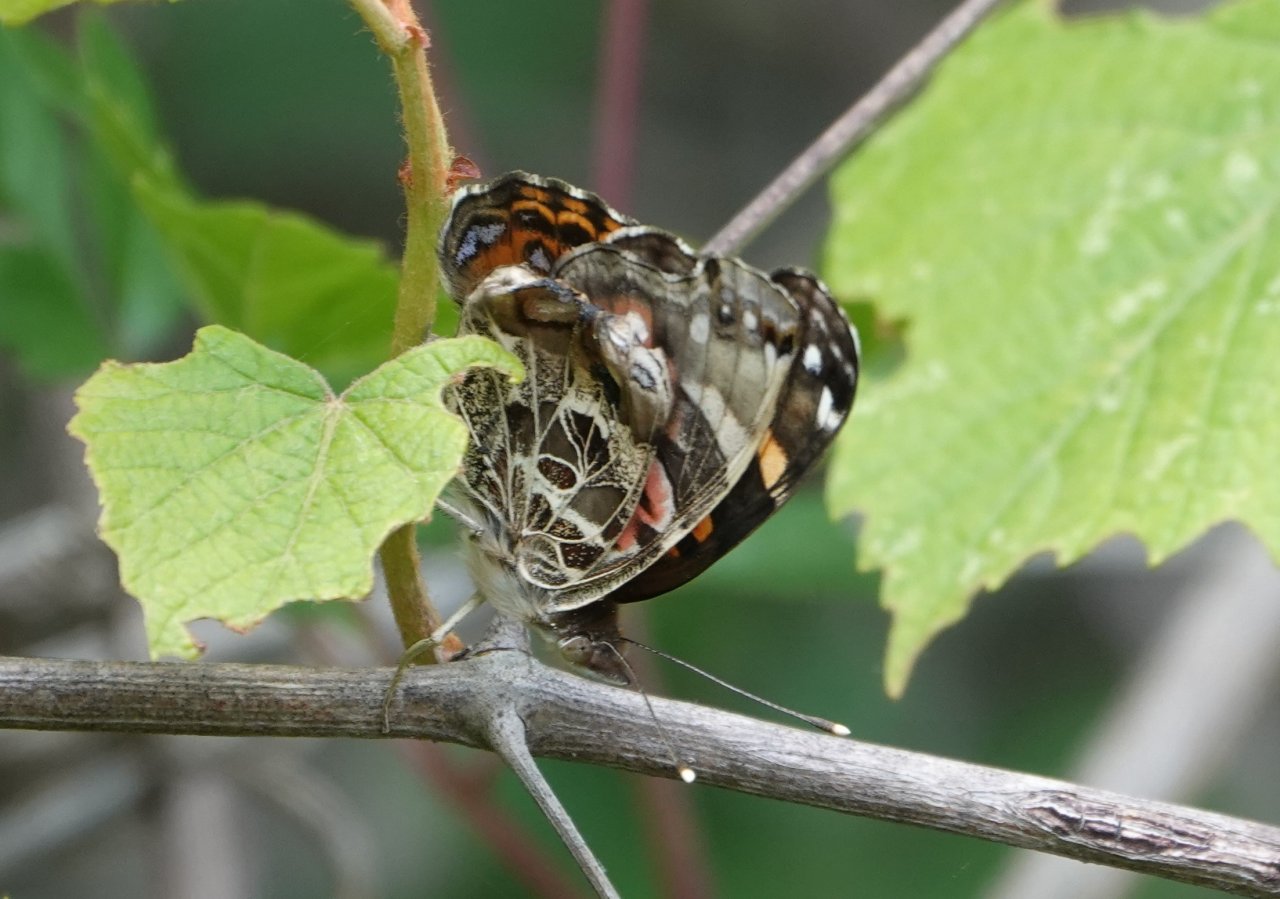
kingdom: Animalia
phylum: Arthropoda
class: Insecta
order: Lepidoptera
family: Nymphalidae
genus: Vanessa
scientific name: Vanessa virginiensis
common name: American Lady
